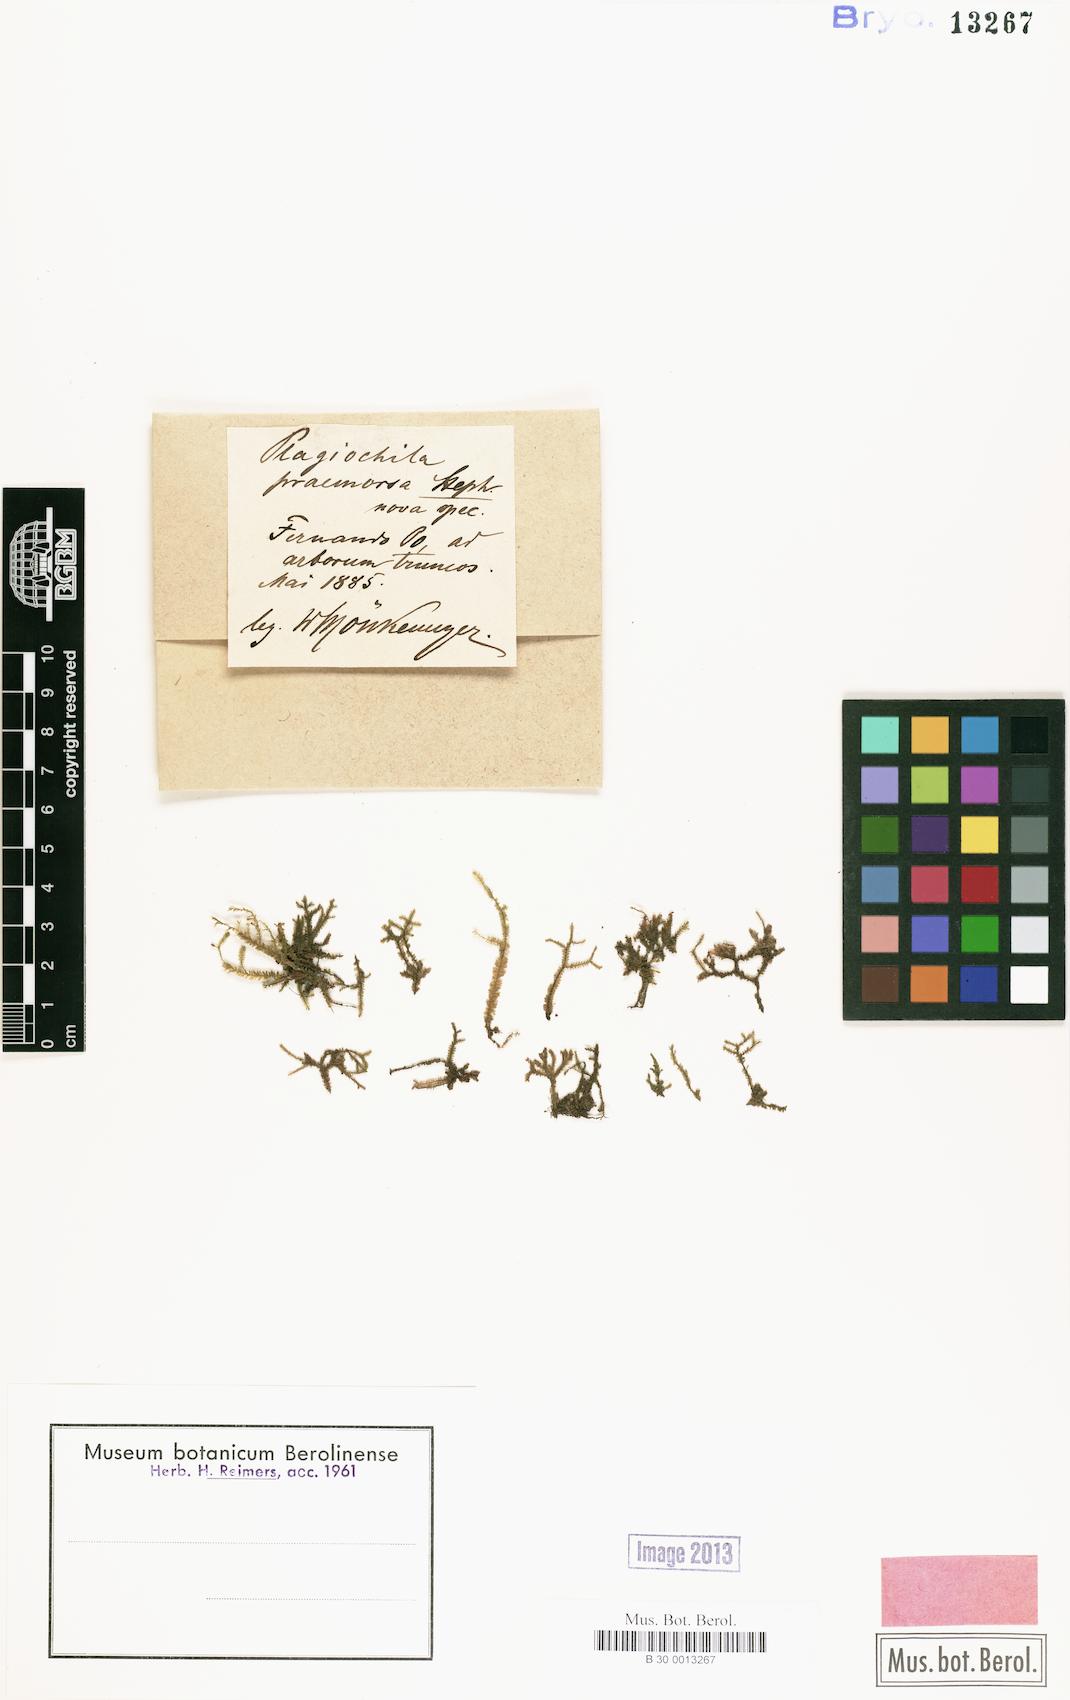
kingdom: Plantae
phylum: Marchantiophyta
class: Jungermanniopsida
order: Jungermanniales
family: Plagiochilaceae
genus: Plagiochila
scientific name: Plagiochila praemorsa
